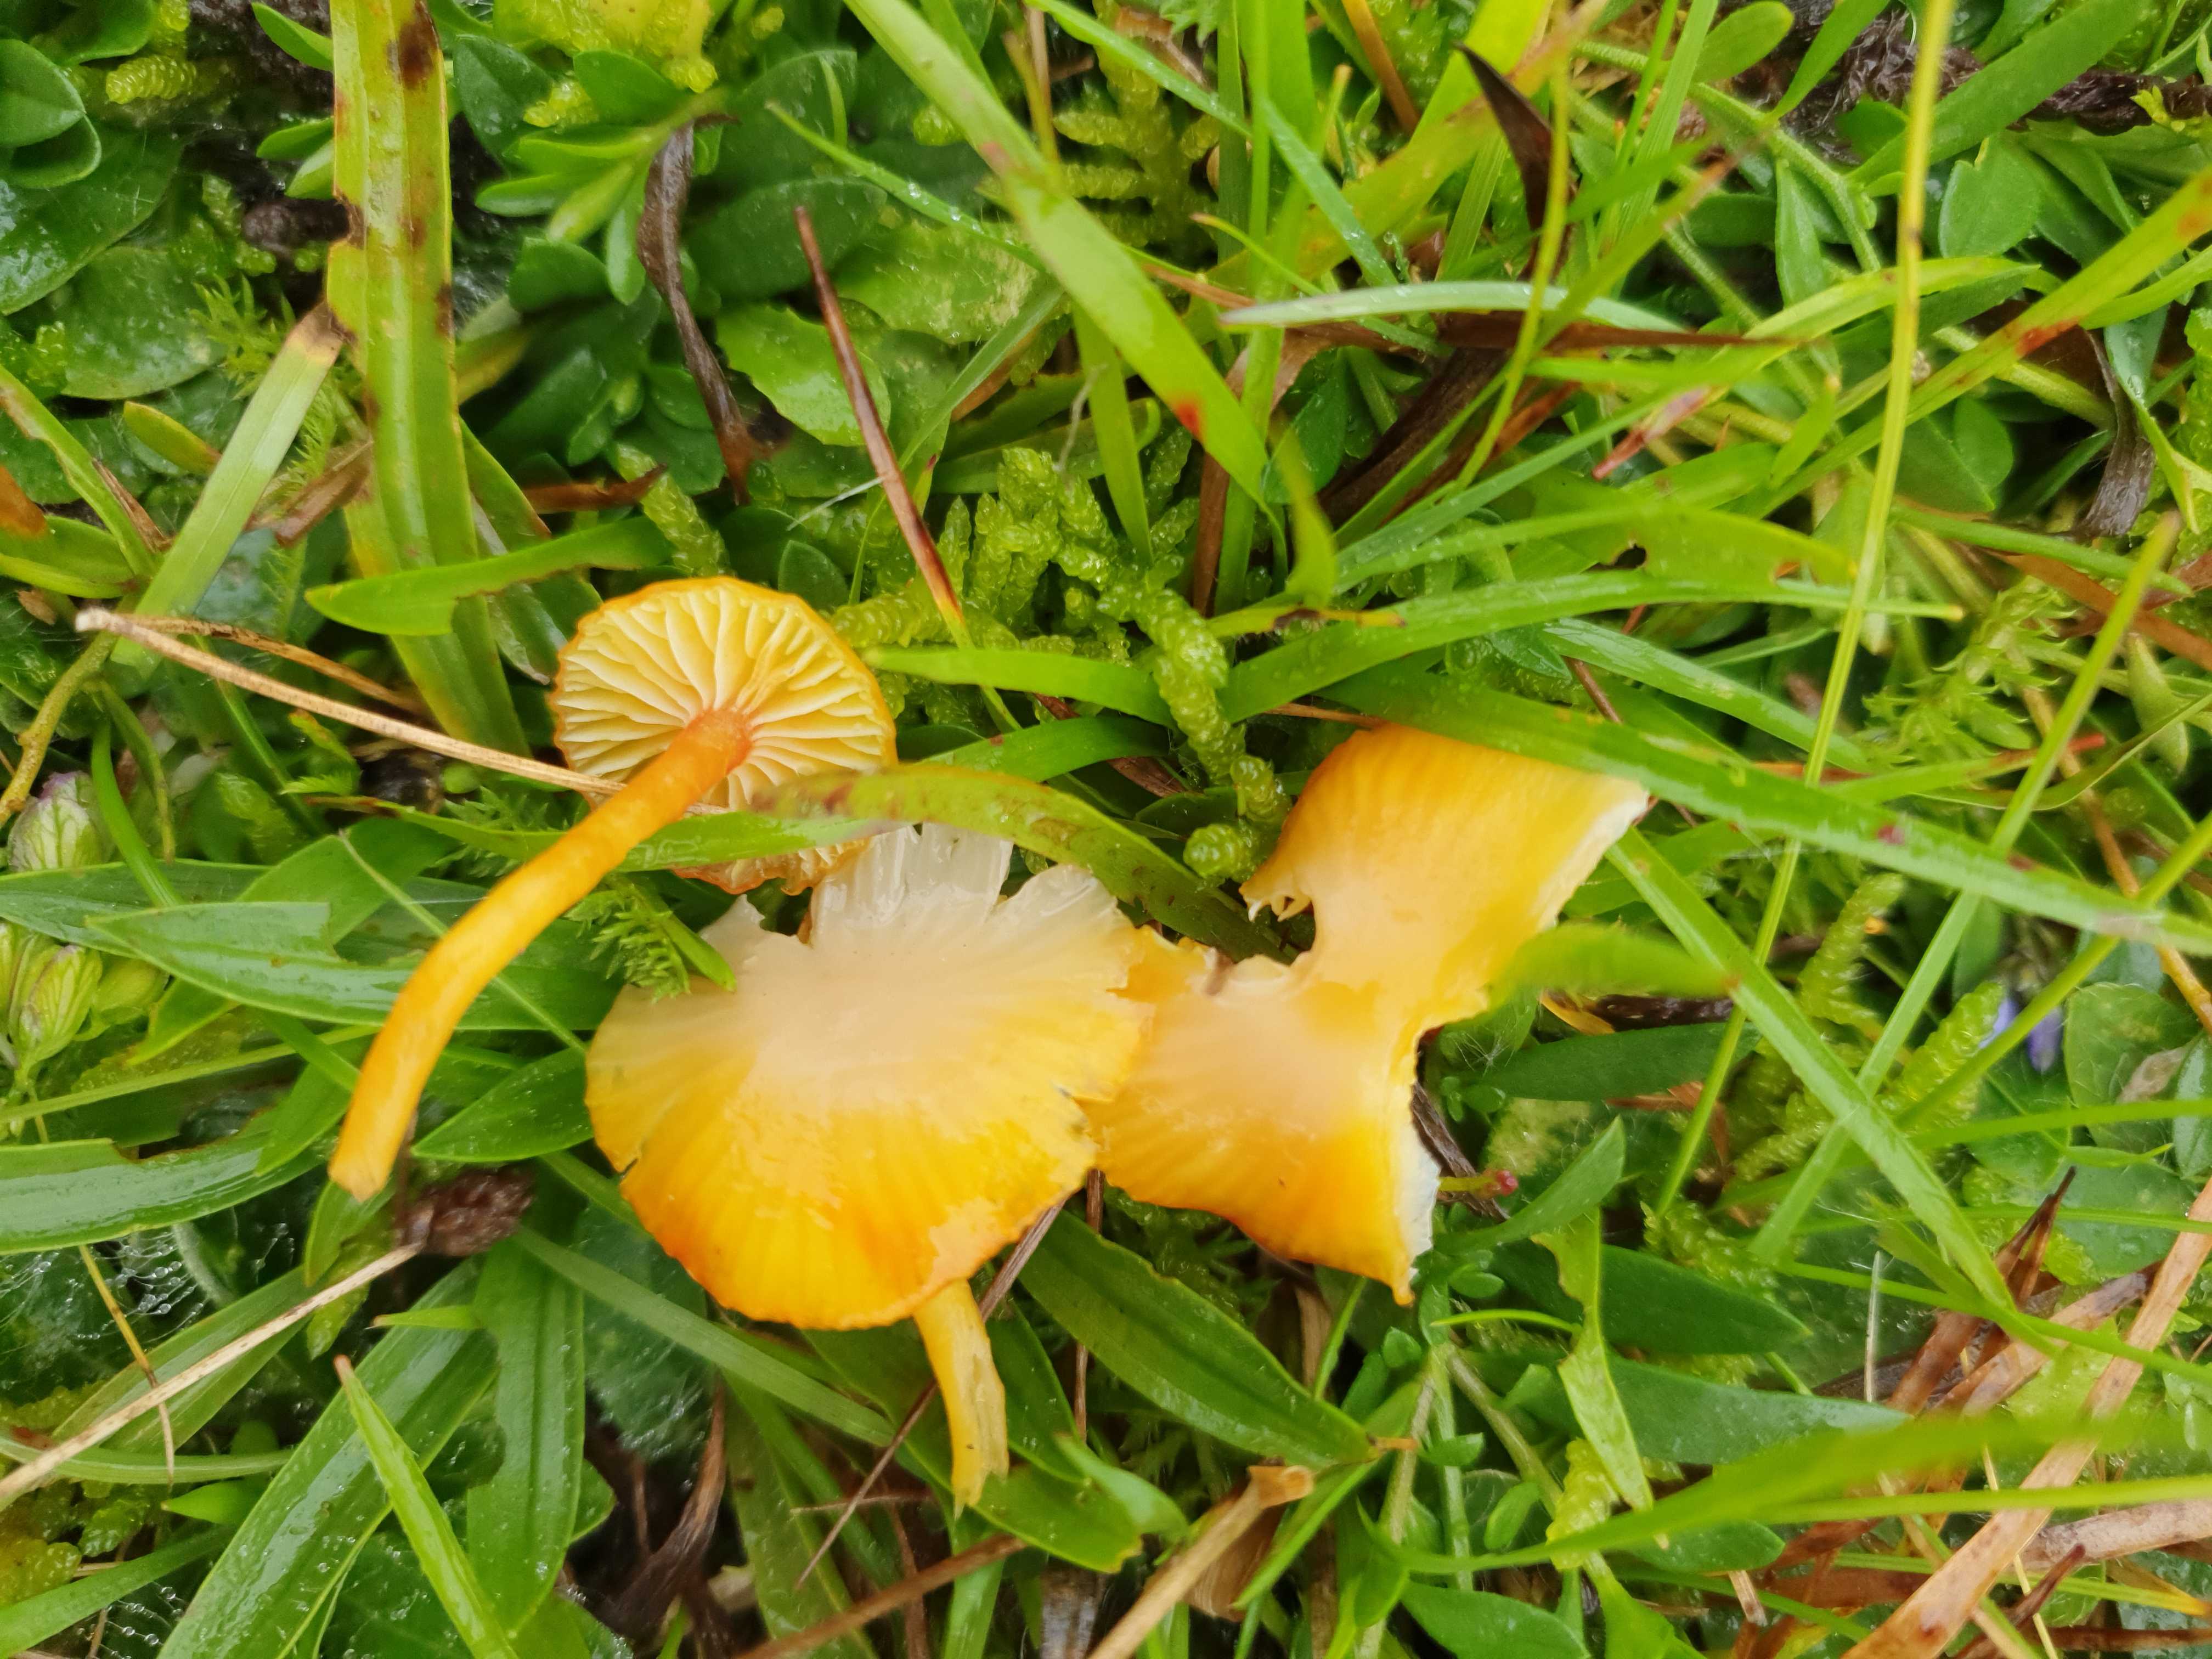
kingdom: Fungi
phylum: Basidiomycota
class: Agaricomycetes
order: Agaricales
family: Hygrophoraceae
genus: Hygrocybe
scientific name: Hygrocybe insipida
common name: liden vokshat
